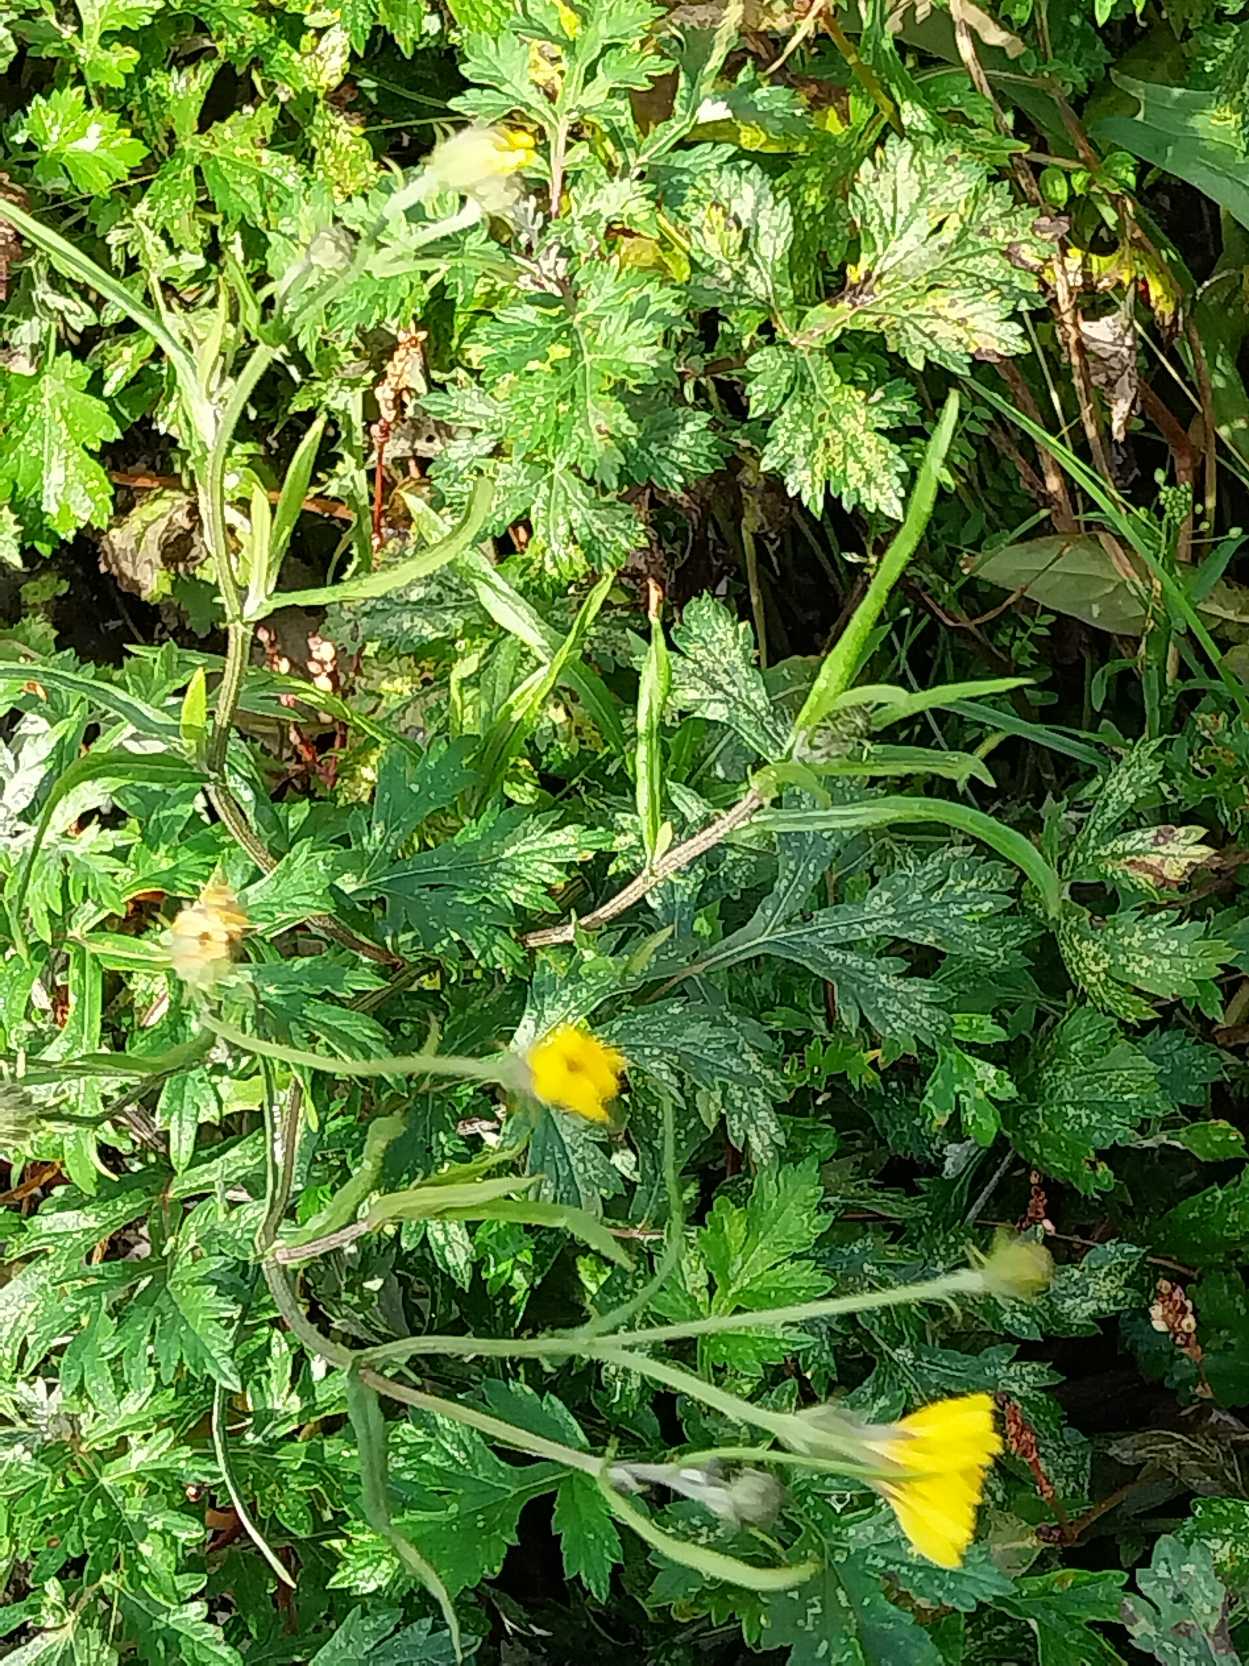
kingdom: Plantae
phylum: Tracheophyta
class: Magnoliopsida
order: Asterales
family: Asteraceae
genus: Crepis
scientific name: Crepis tectorum
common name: Tag-høgeskæg
